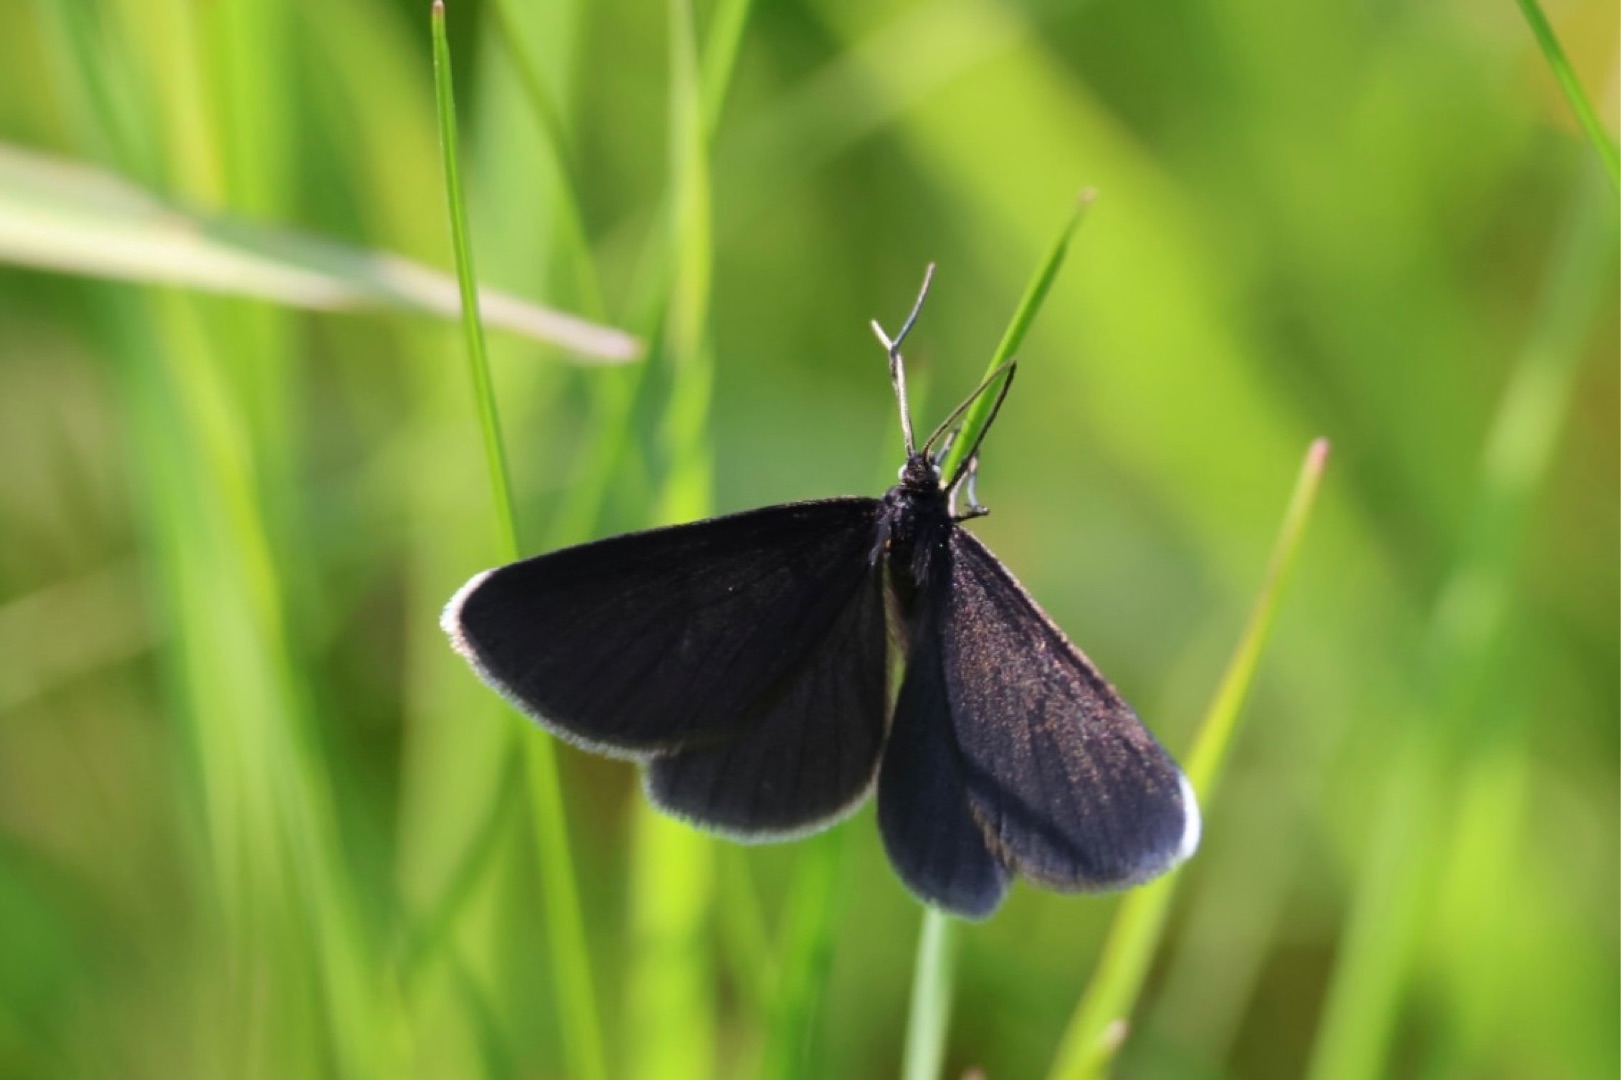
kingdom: Animalia
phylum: Arthropoda
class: Insecta
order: Lepidoptera
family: Geometridae
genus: Odezia
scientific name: Odezia atrata
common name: Sort måler
